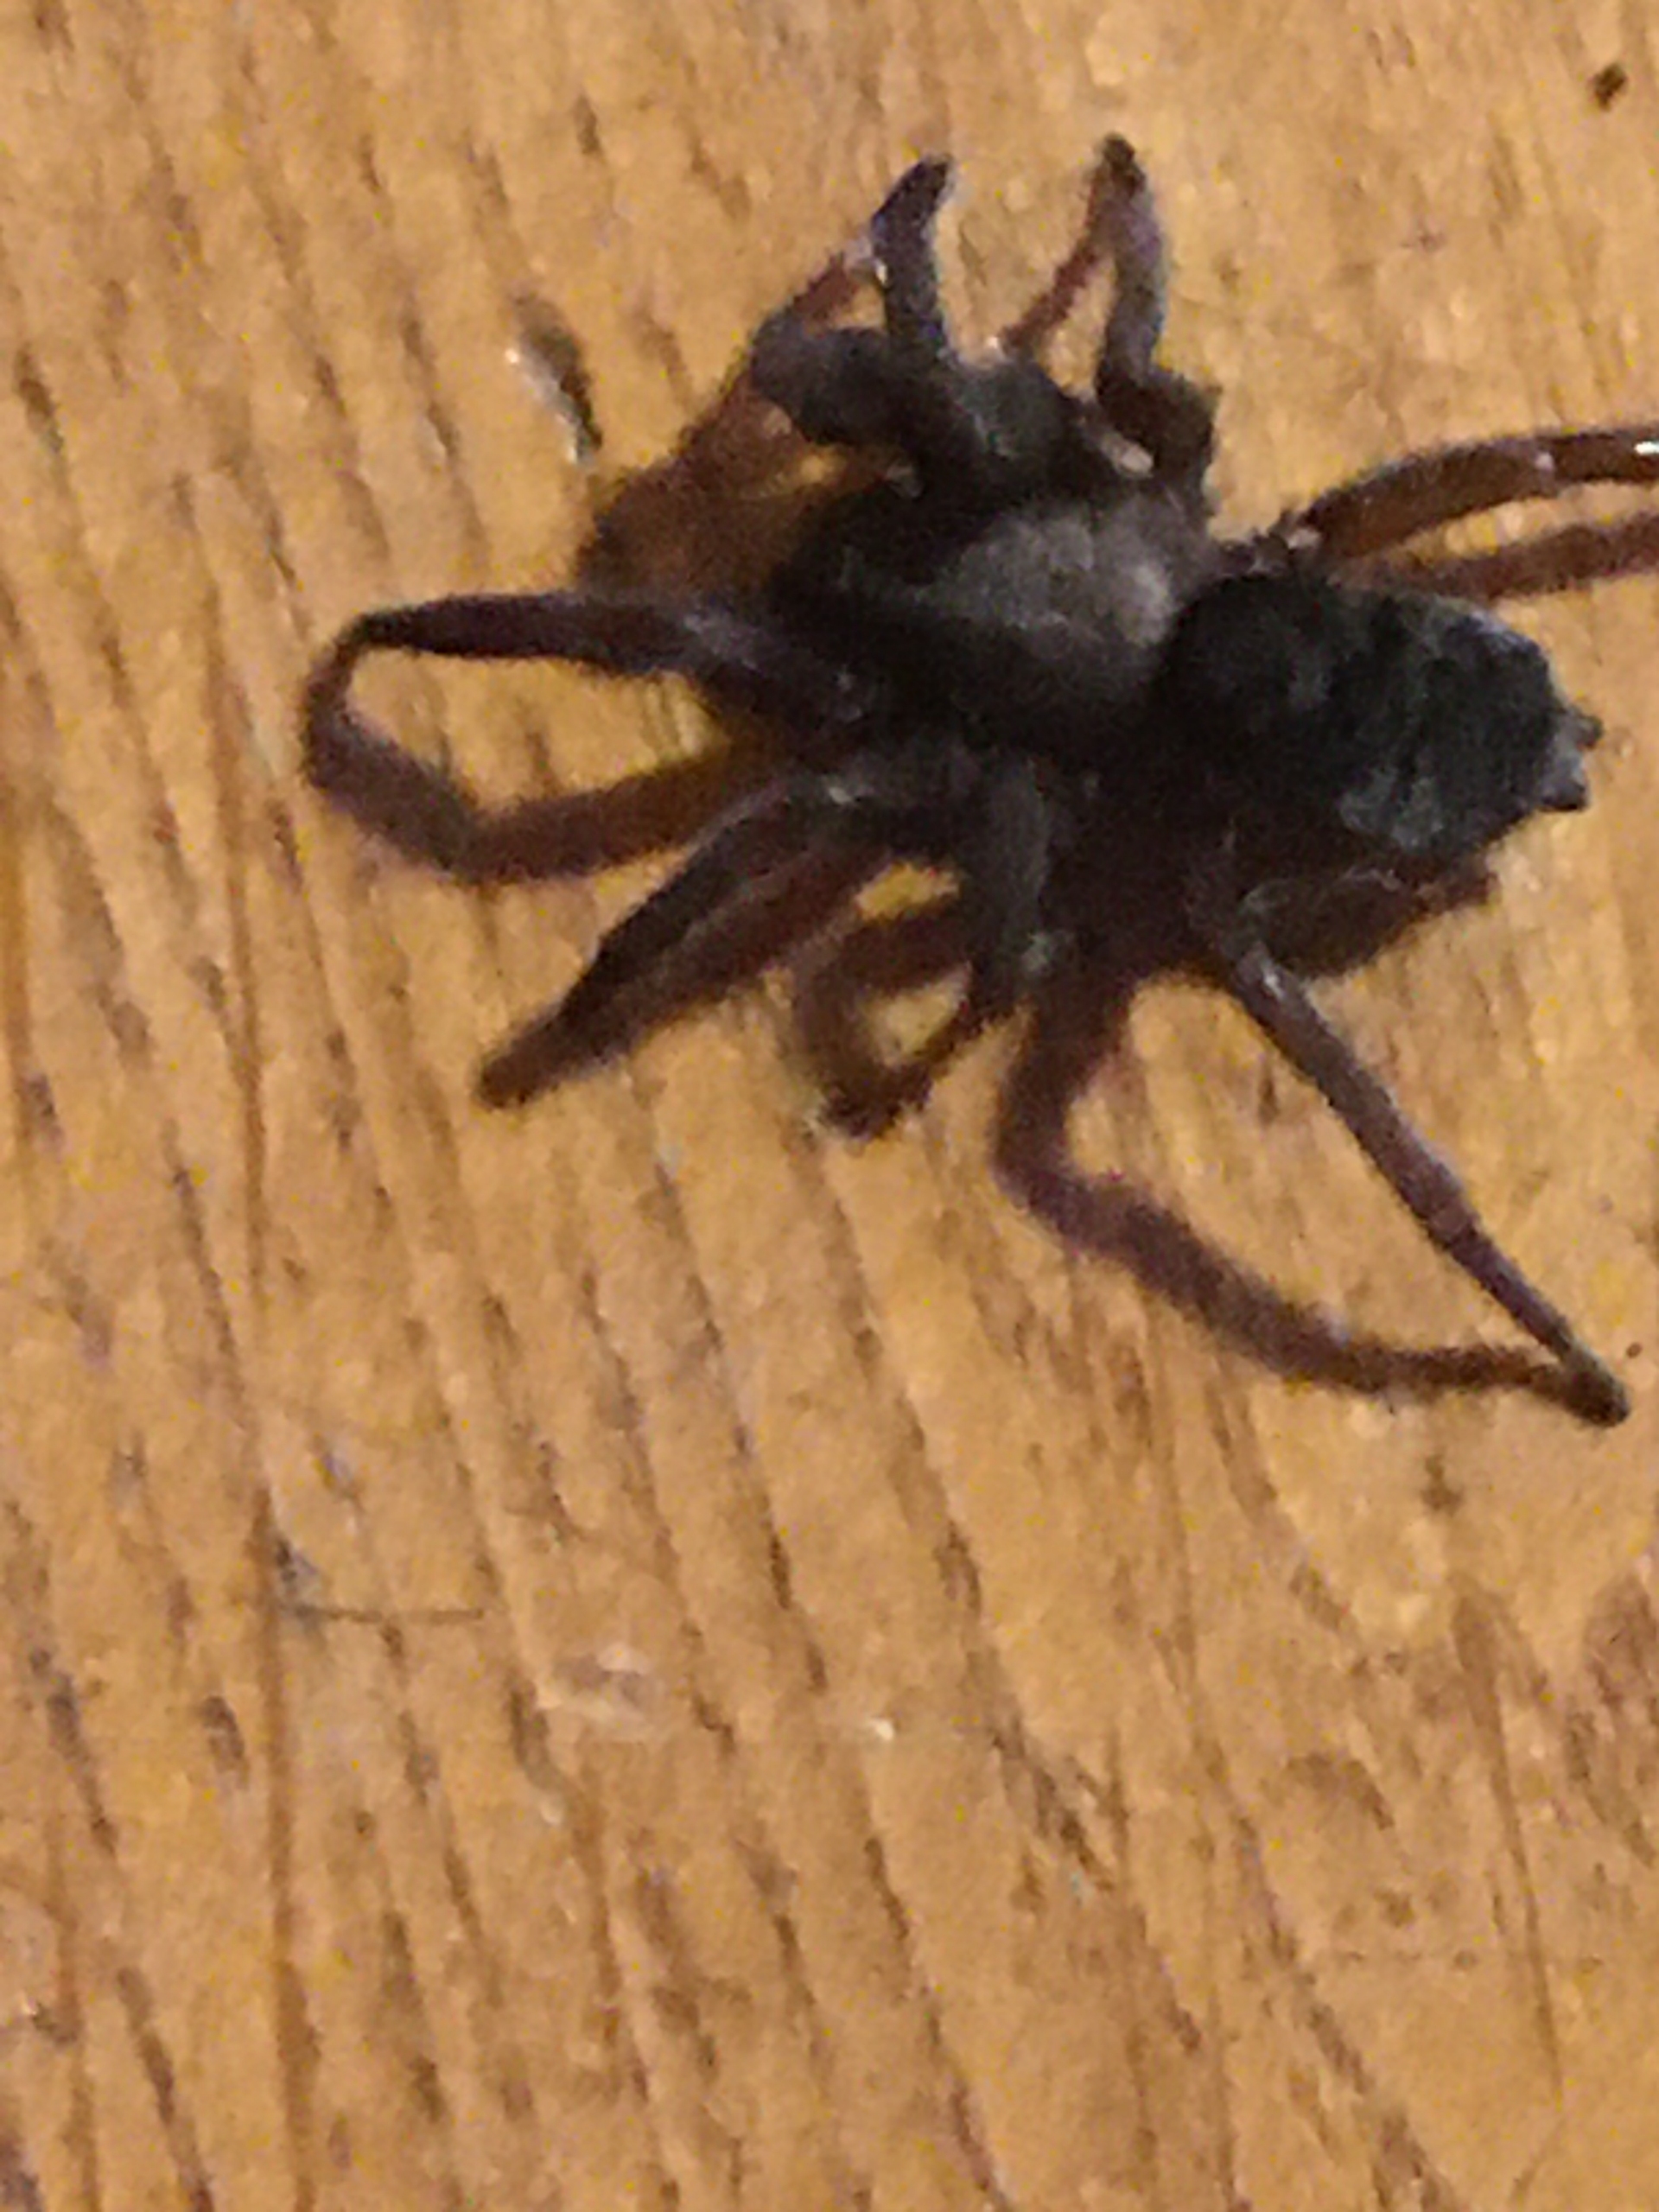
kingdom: Animalia
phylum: Arthropoda
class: Arachnida
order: Araneae
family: Gnaphosidae
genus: Scotophaeus
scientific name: Scotophaeus
